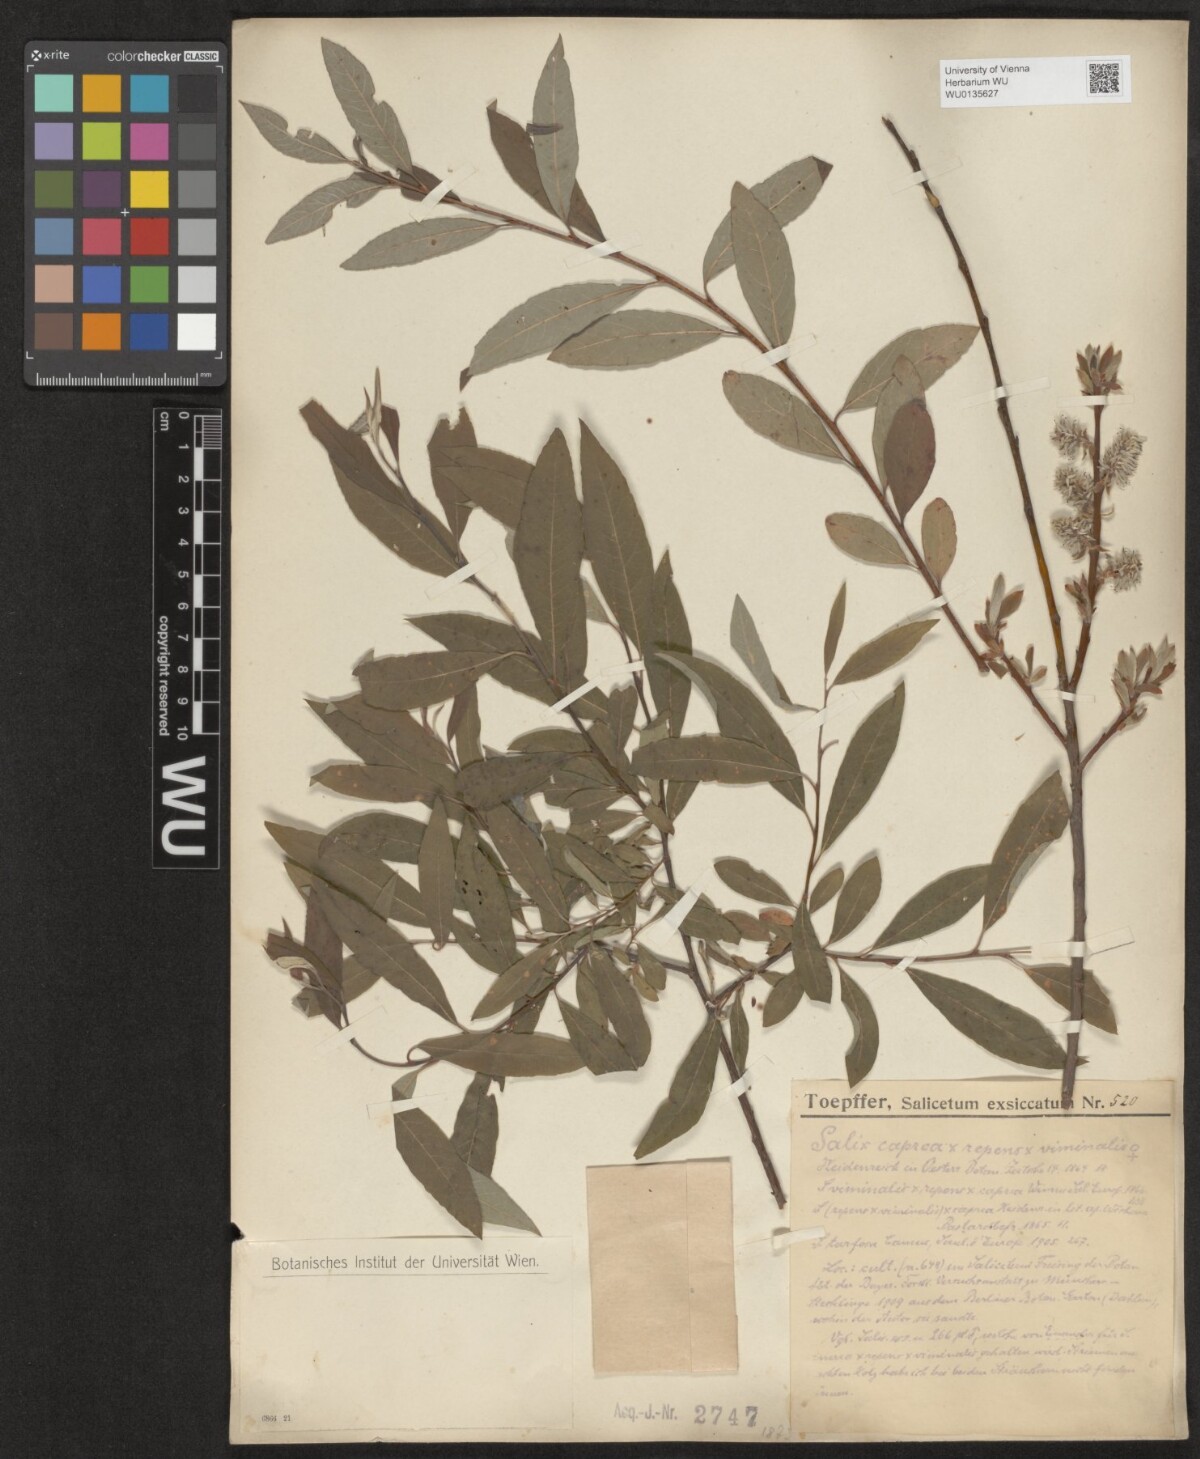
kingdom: Plantae
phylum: Tracheophyta
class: Magnoliopsida
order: Malpighiales
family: Salicaceae
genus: Salix
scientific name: Salix
